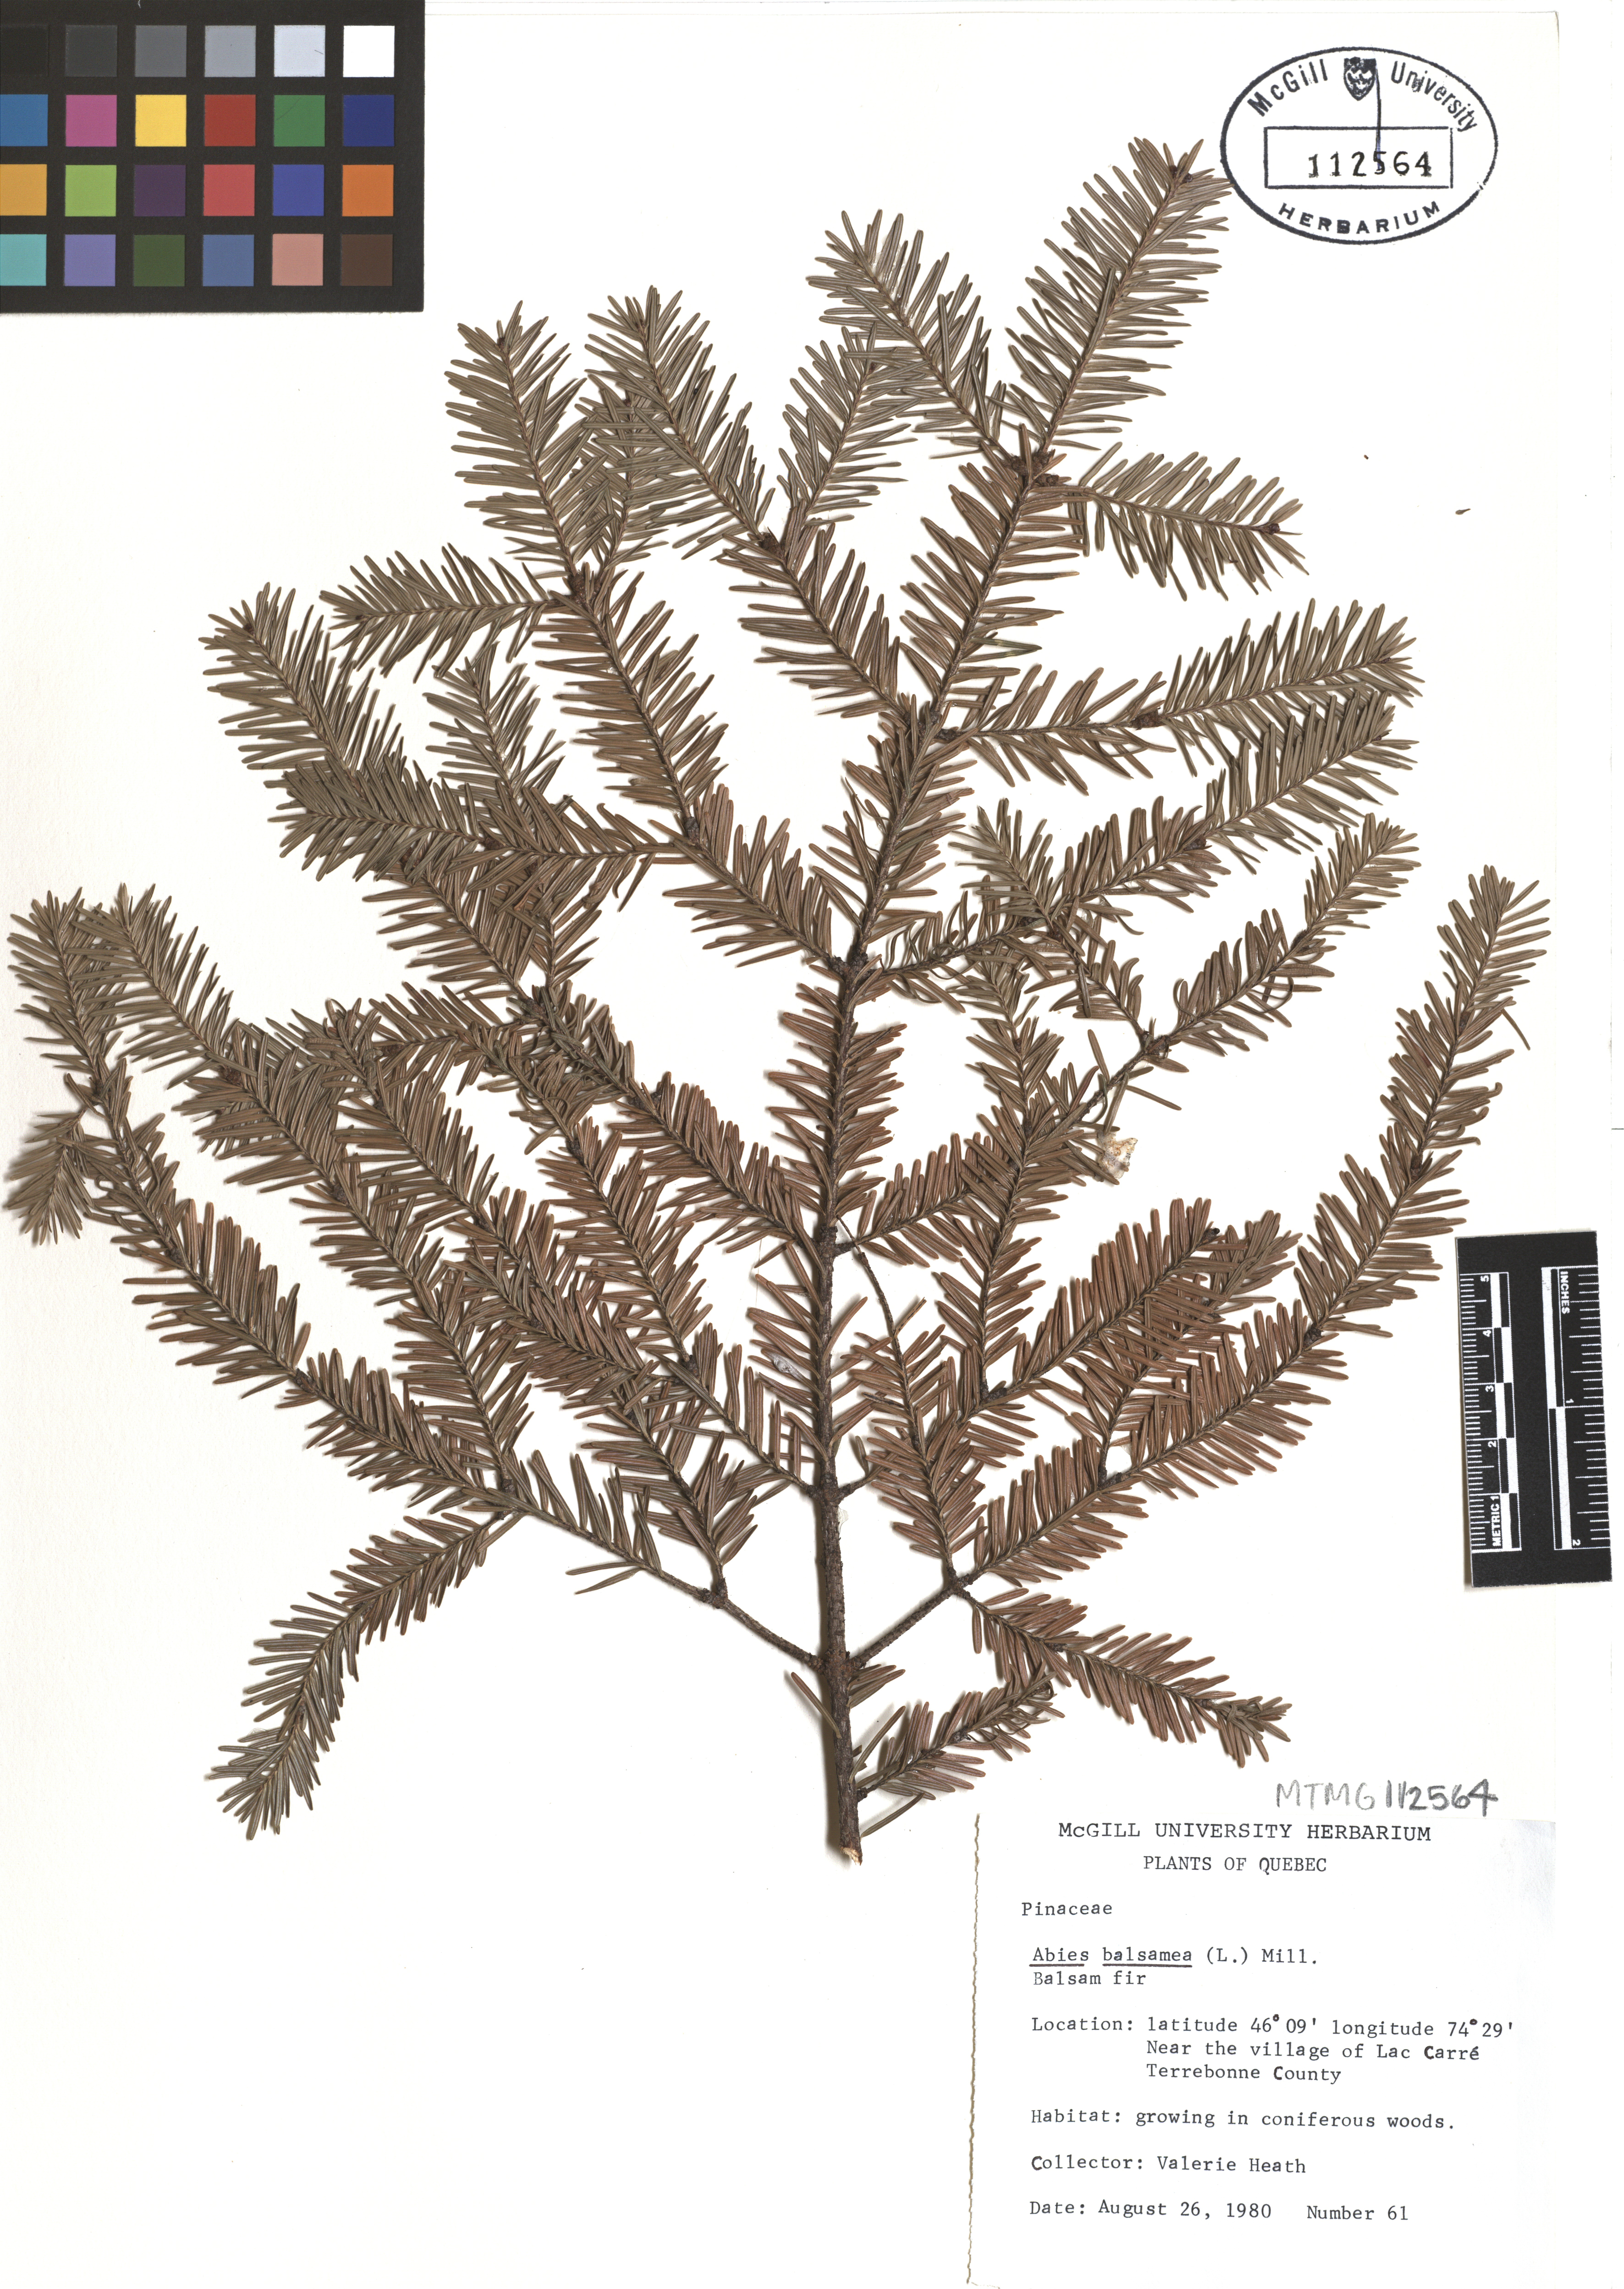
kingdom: Plantae
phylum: Tracheophyta
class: Pinopsida
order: Pinales
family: Pinaceae
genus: Abies
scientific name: Abies balsamea
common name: Balsam fir
